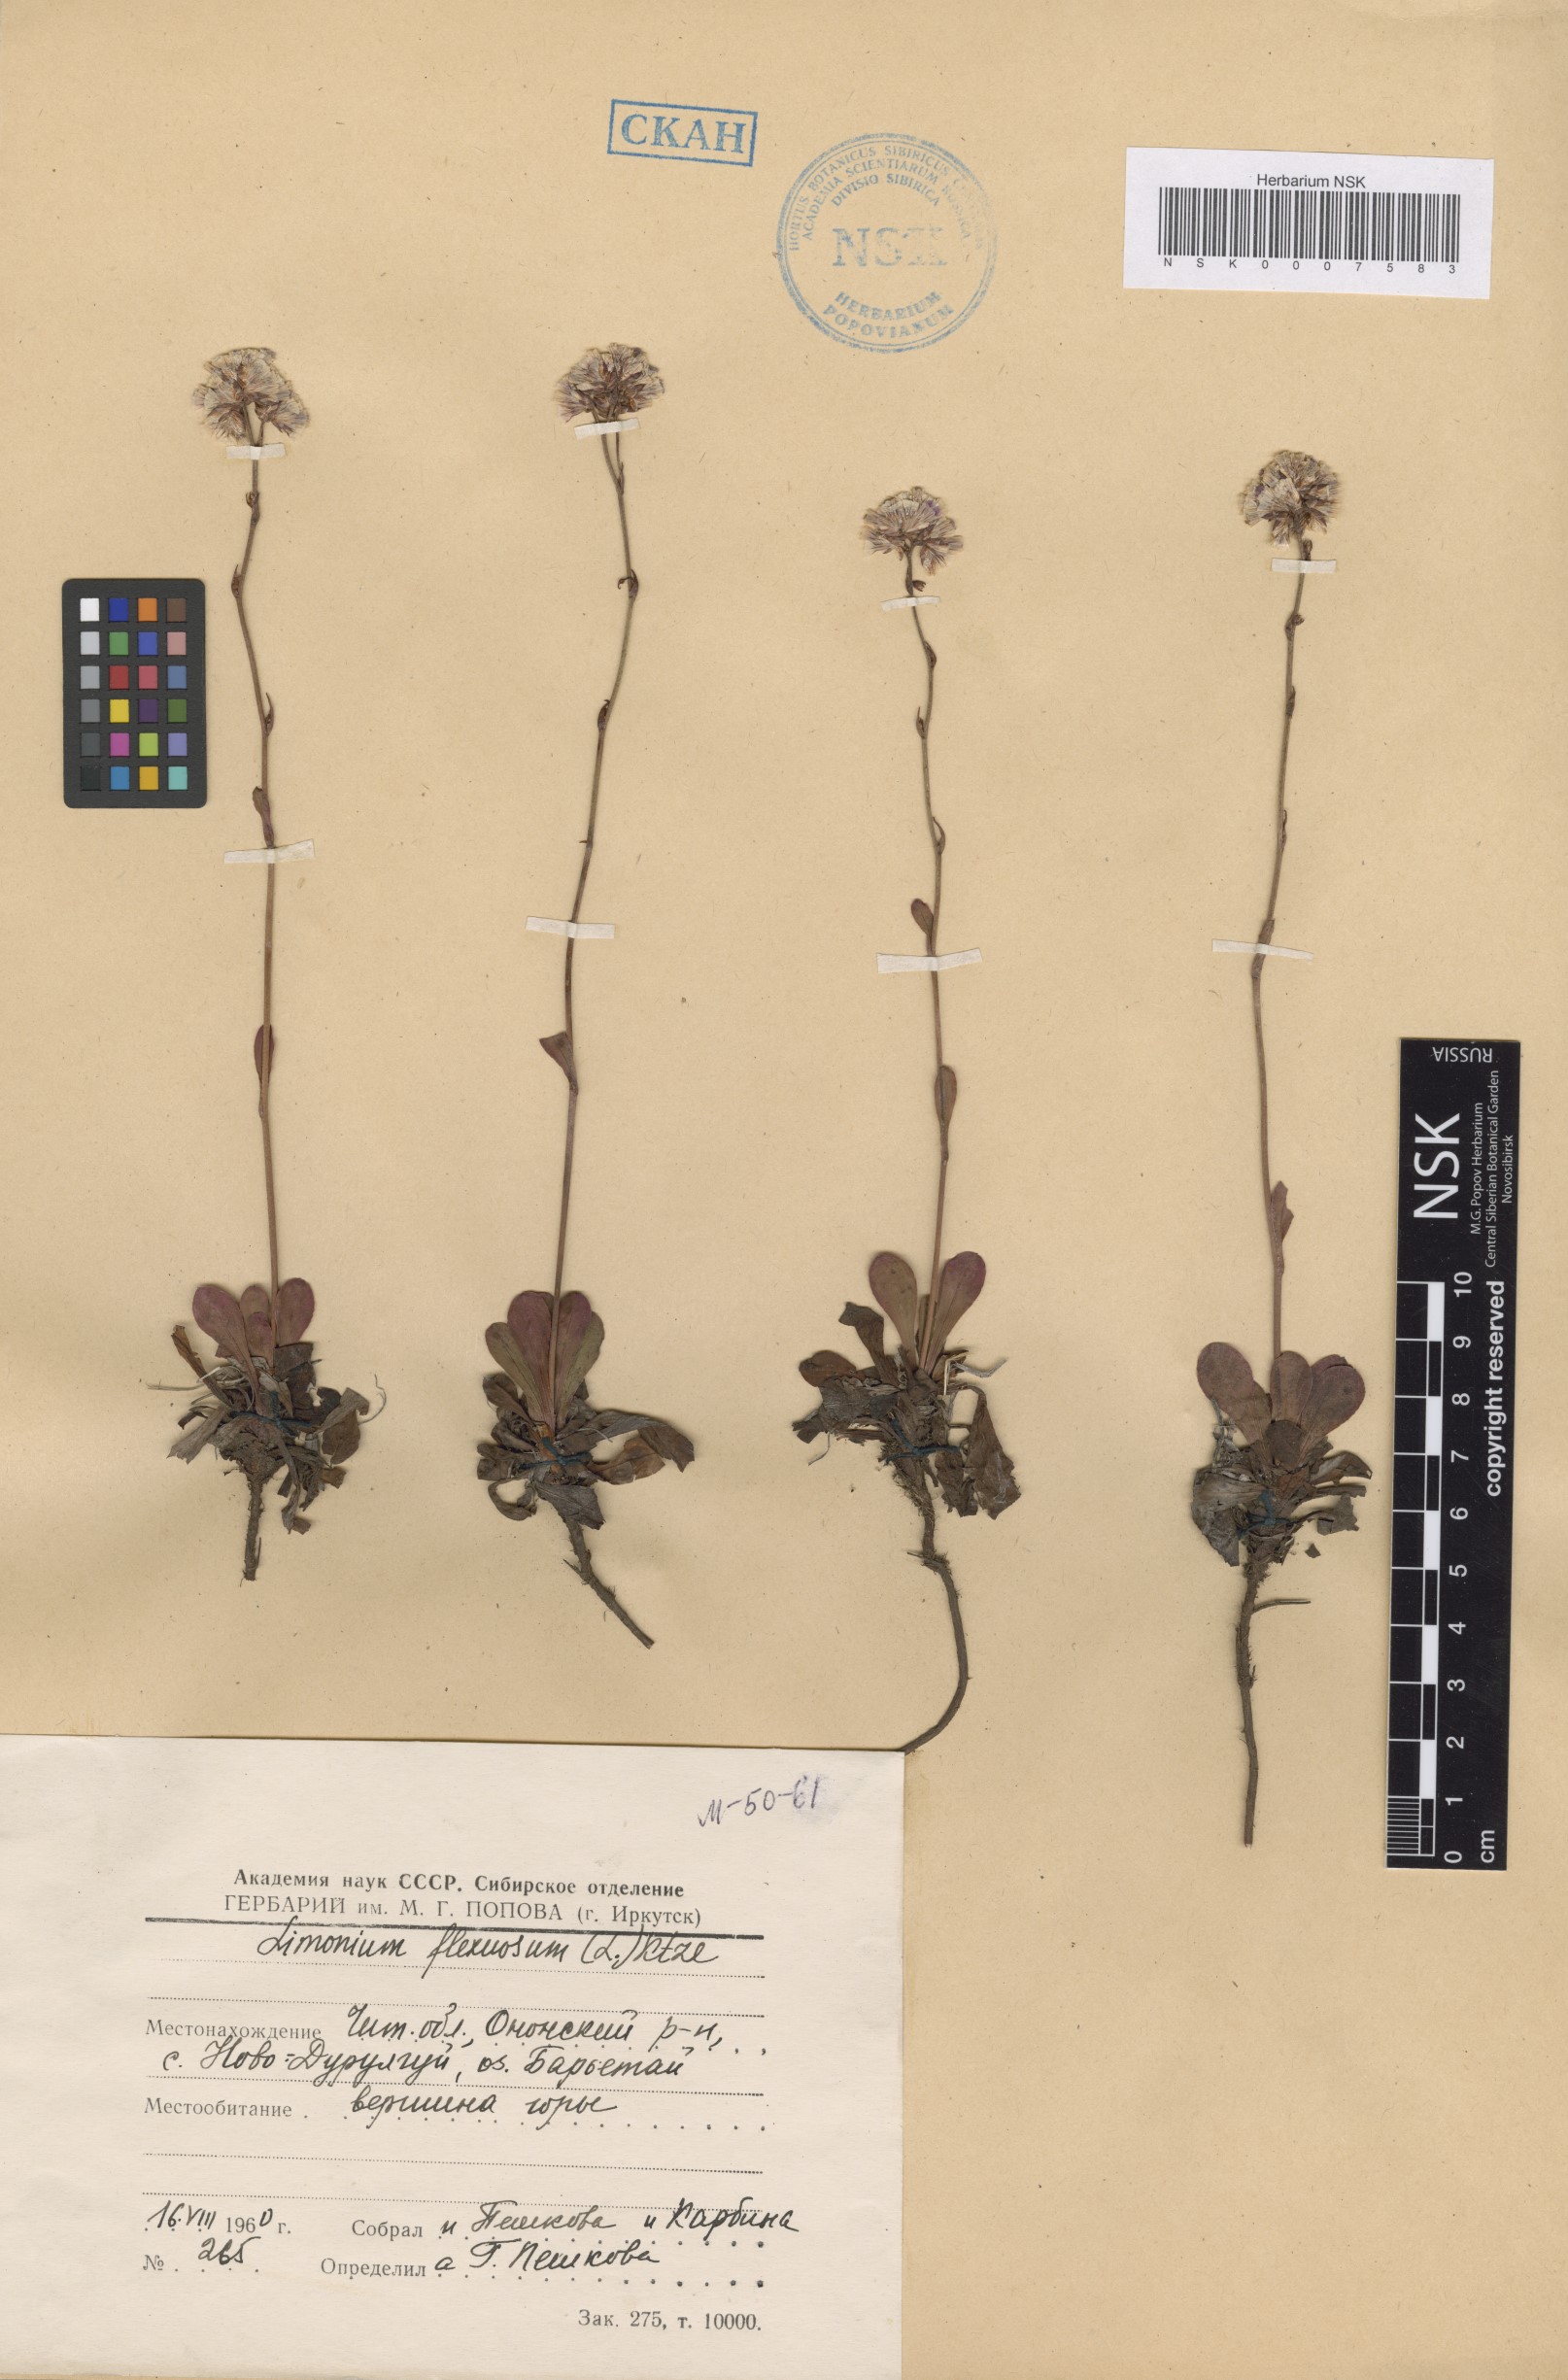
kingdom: Plantae
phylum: Tracheophyta
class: Magnoliopsida
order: Caryophyllales
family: Plumbaginaceae
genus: Limonium
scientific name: Limonium flexuosum
